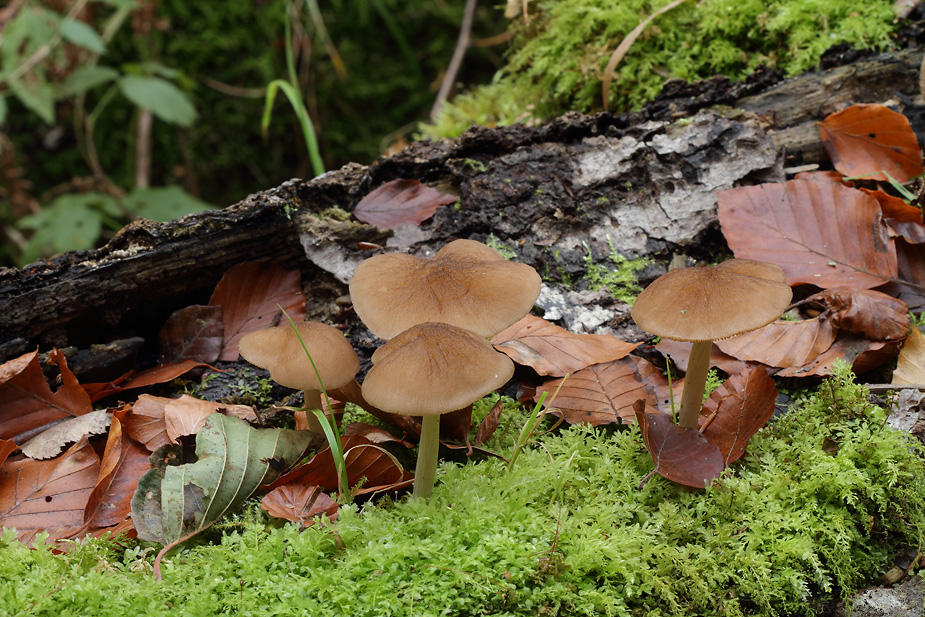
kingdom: Fungi
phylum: Basidiomycota
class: Agaricomycetes
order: Agaricales
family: Pluteaceae
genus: Pluteus
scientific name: Pluteus phlebophorus
